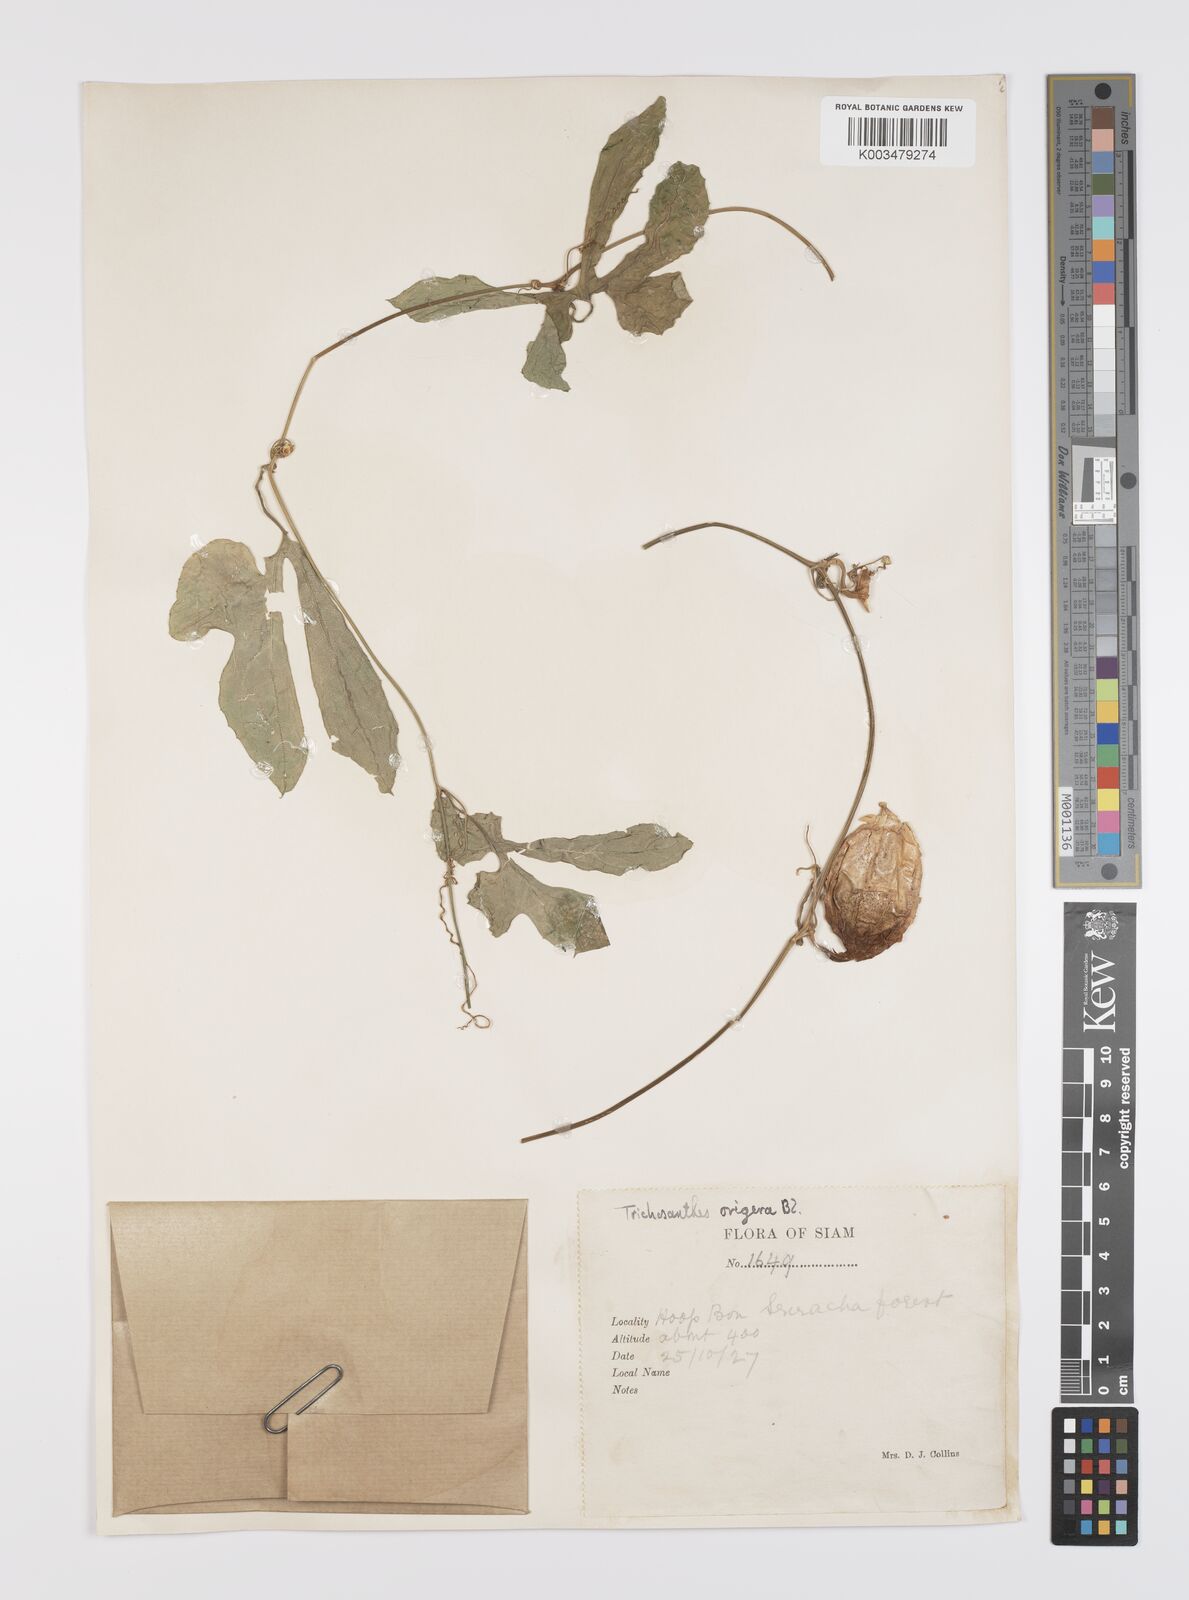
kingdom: Plantae
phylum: Tracheophyta
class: Magnoliopsida
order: Cucurbitales
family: Cucurbitaceae
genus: Trichosanthes
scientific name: Trichosanthes ovigera
